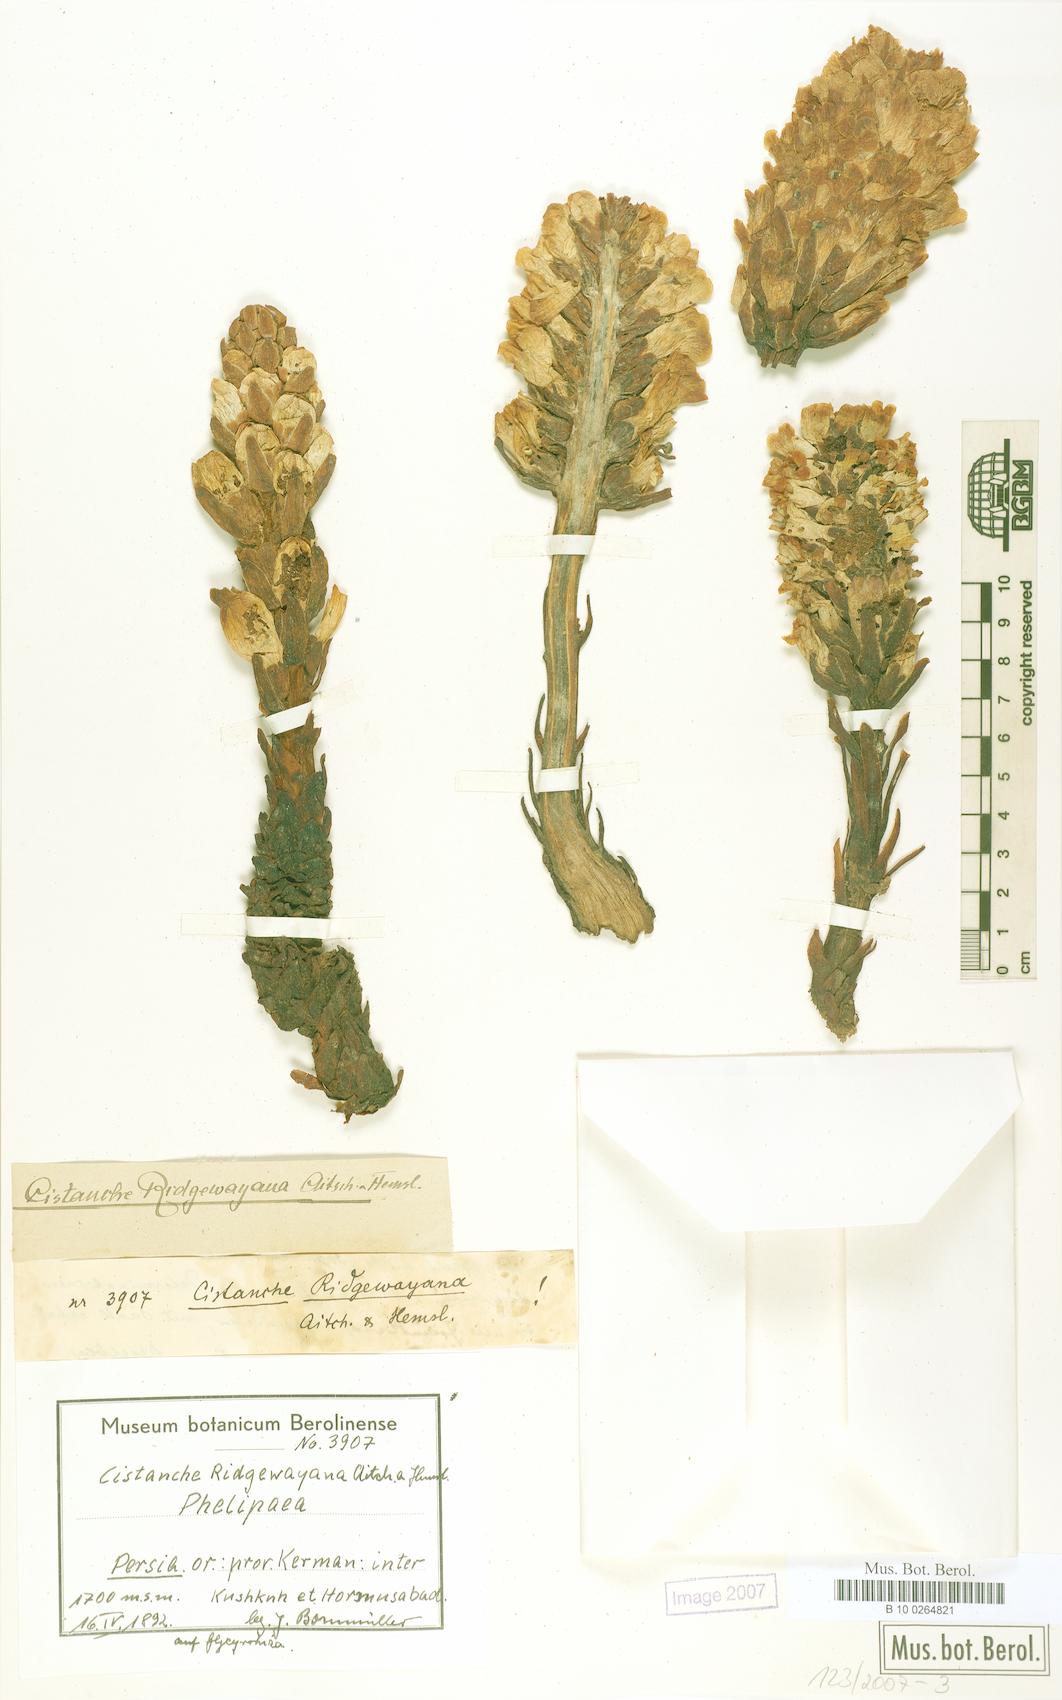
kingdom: Plantae
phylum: Tracheophyta
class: Magnoliopsida
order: Lamiales
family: Orobanchaceae
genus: Cistanche
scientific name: Cistanche ridgewayana
